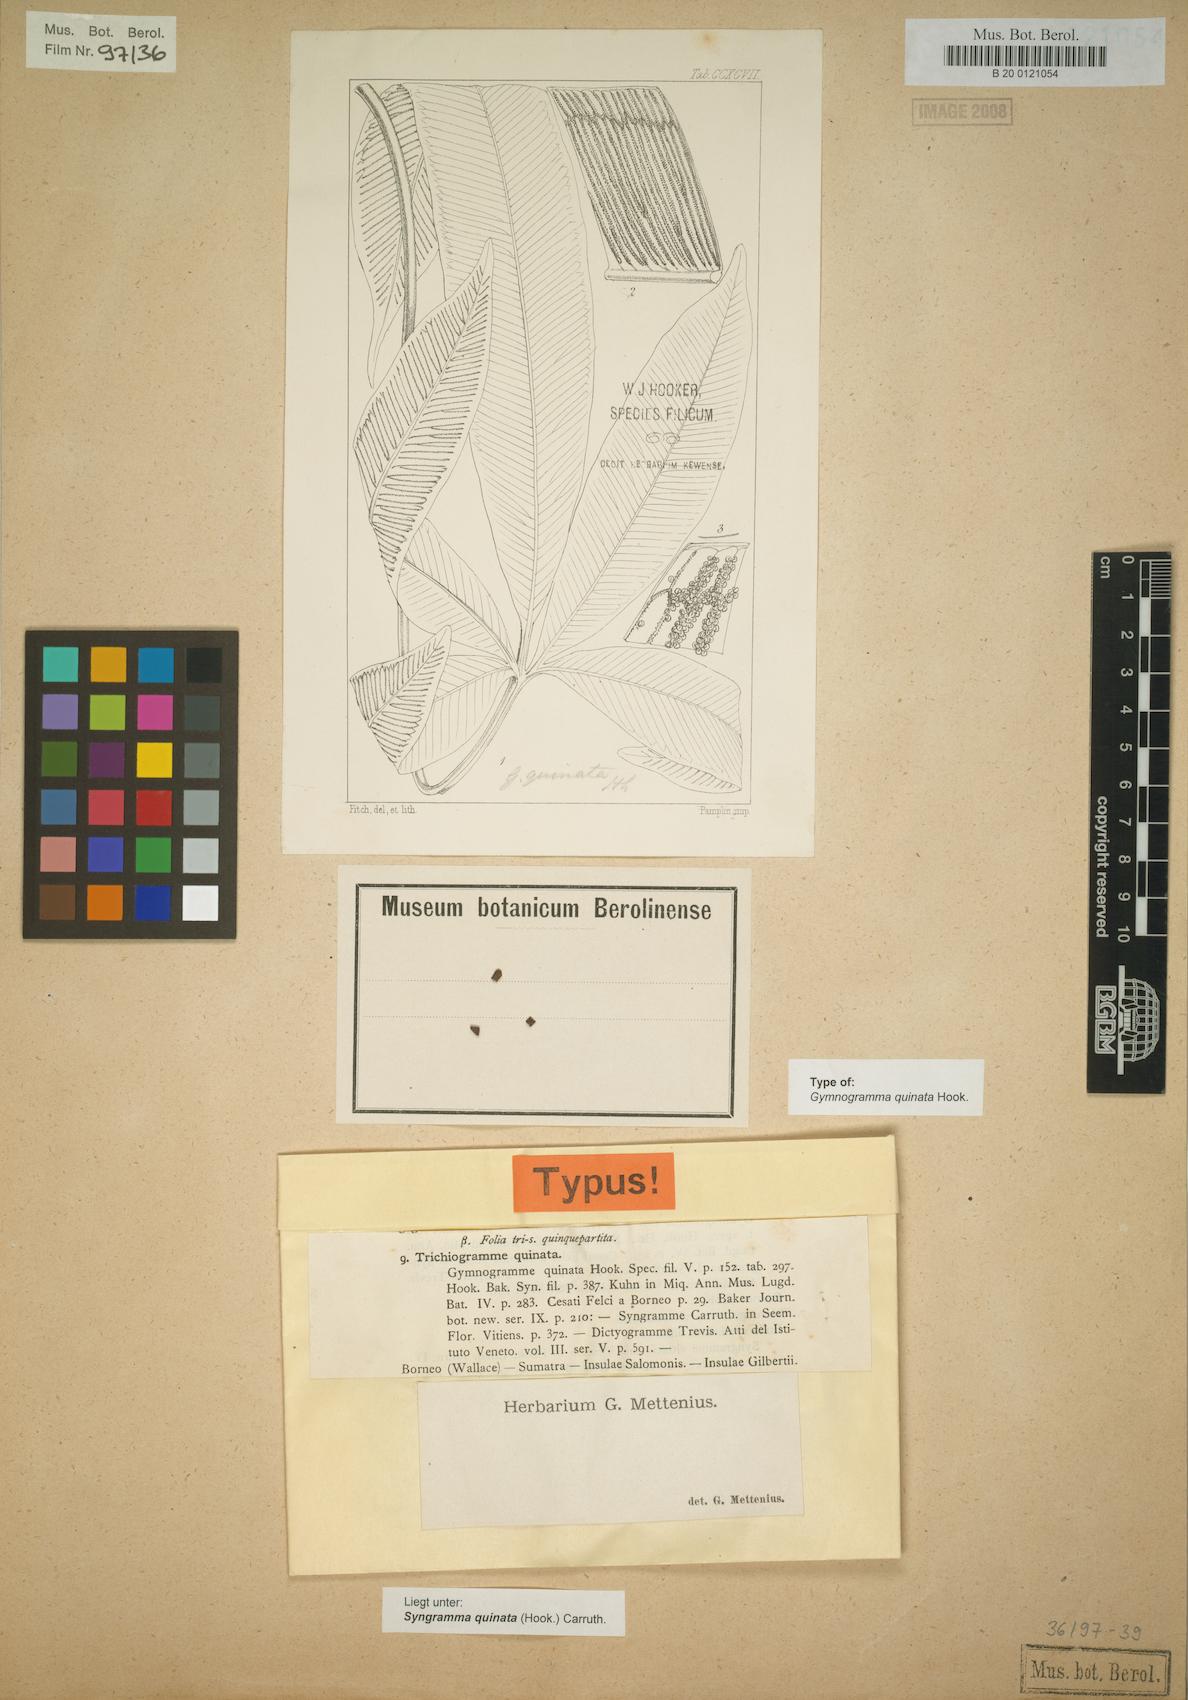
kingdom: Plantae
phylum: Tracheophyta
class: Polypodiopsida
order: Polypodiales
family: Pteridaceae
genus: Syngramma
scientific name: Syngramma quinata
